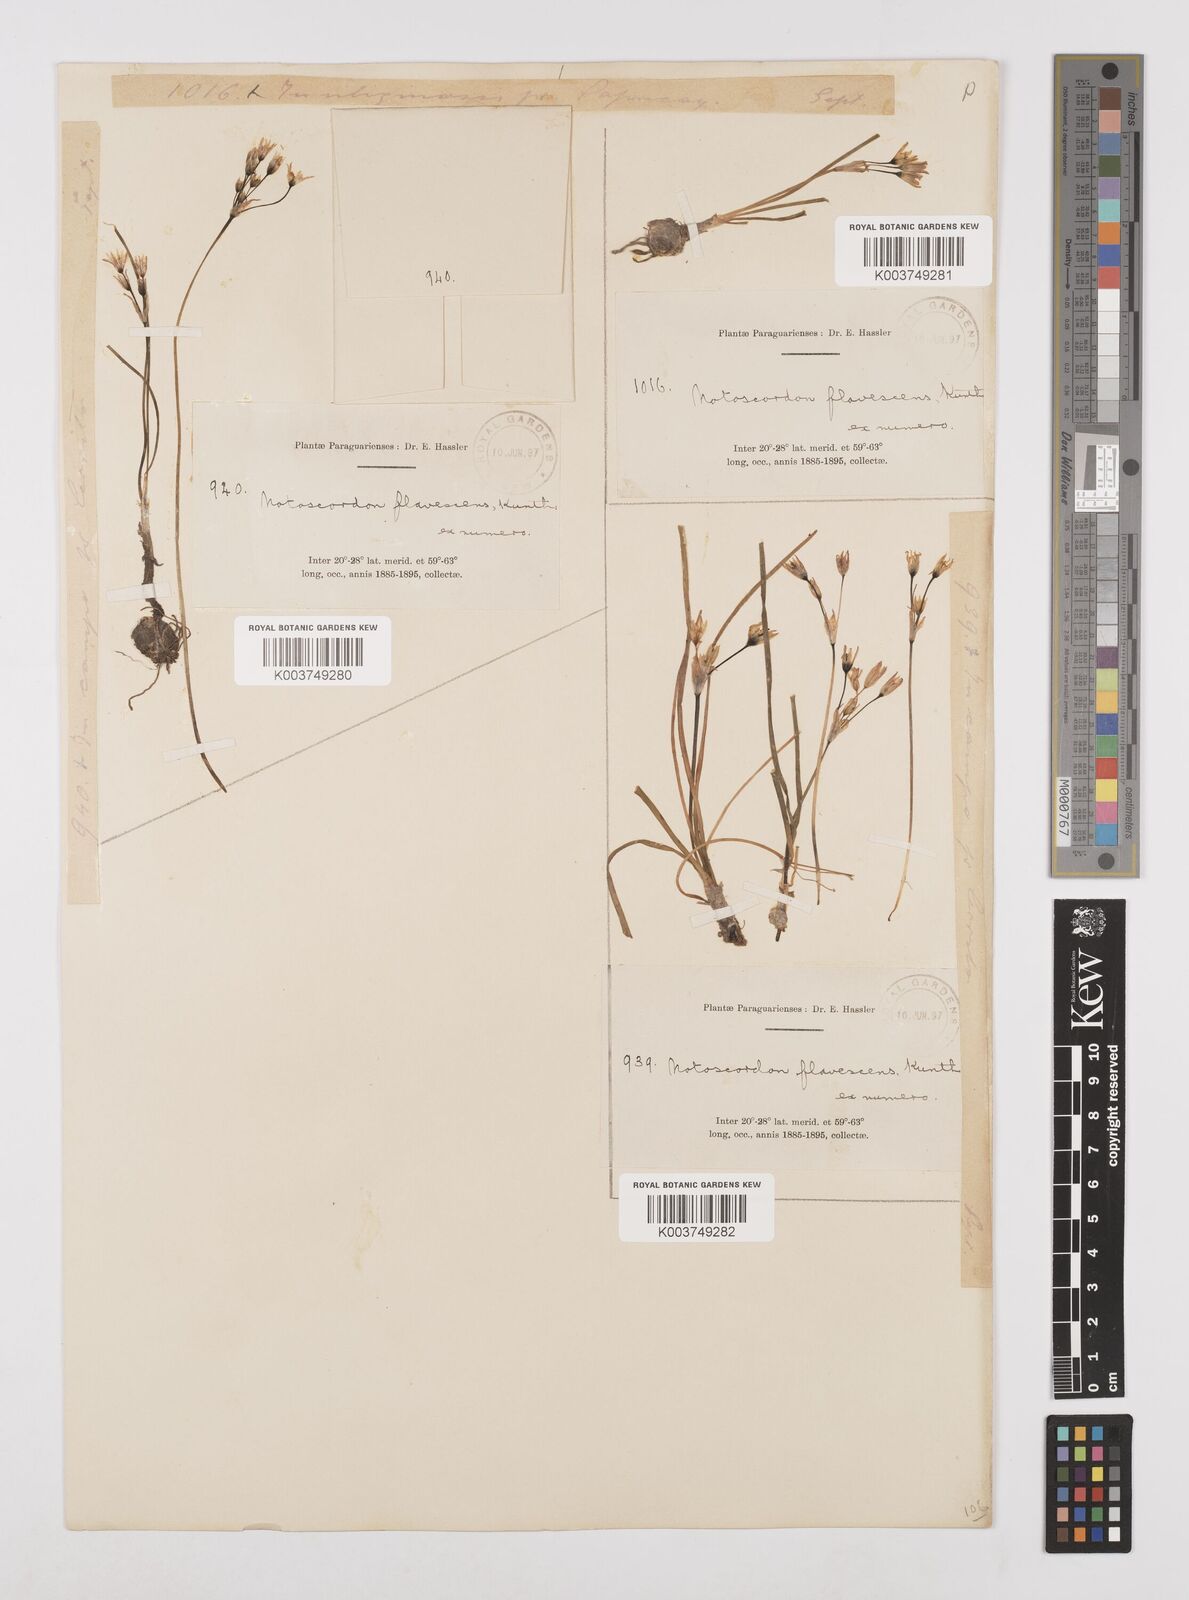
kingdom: Plantae
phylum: Tracheophyta
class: Liliopsida
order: Asparagales
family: Amaryllidaceae
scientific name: Amaryllidaceae
